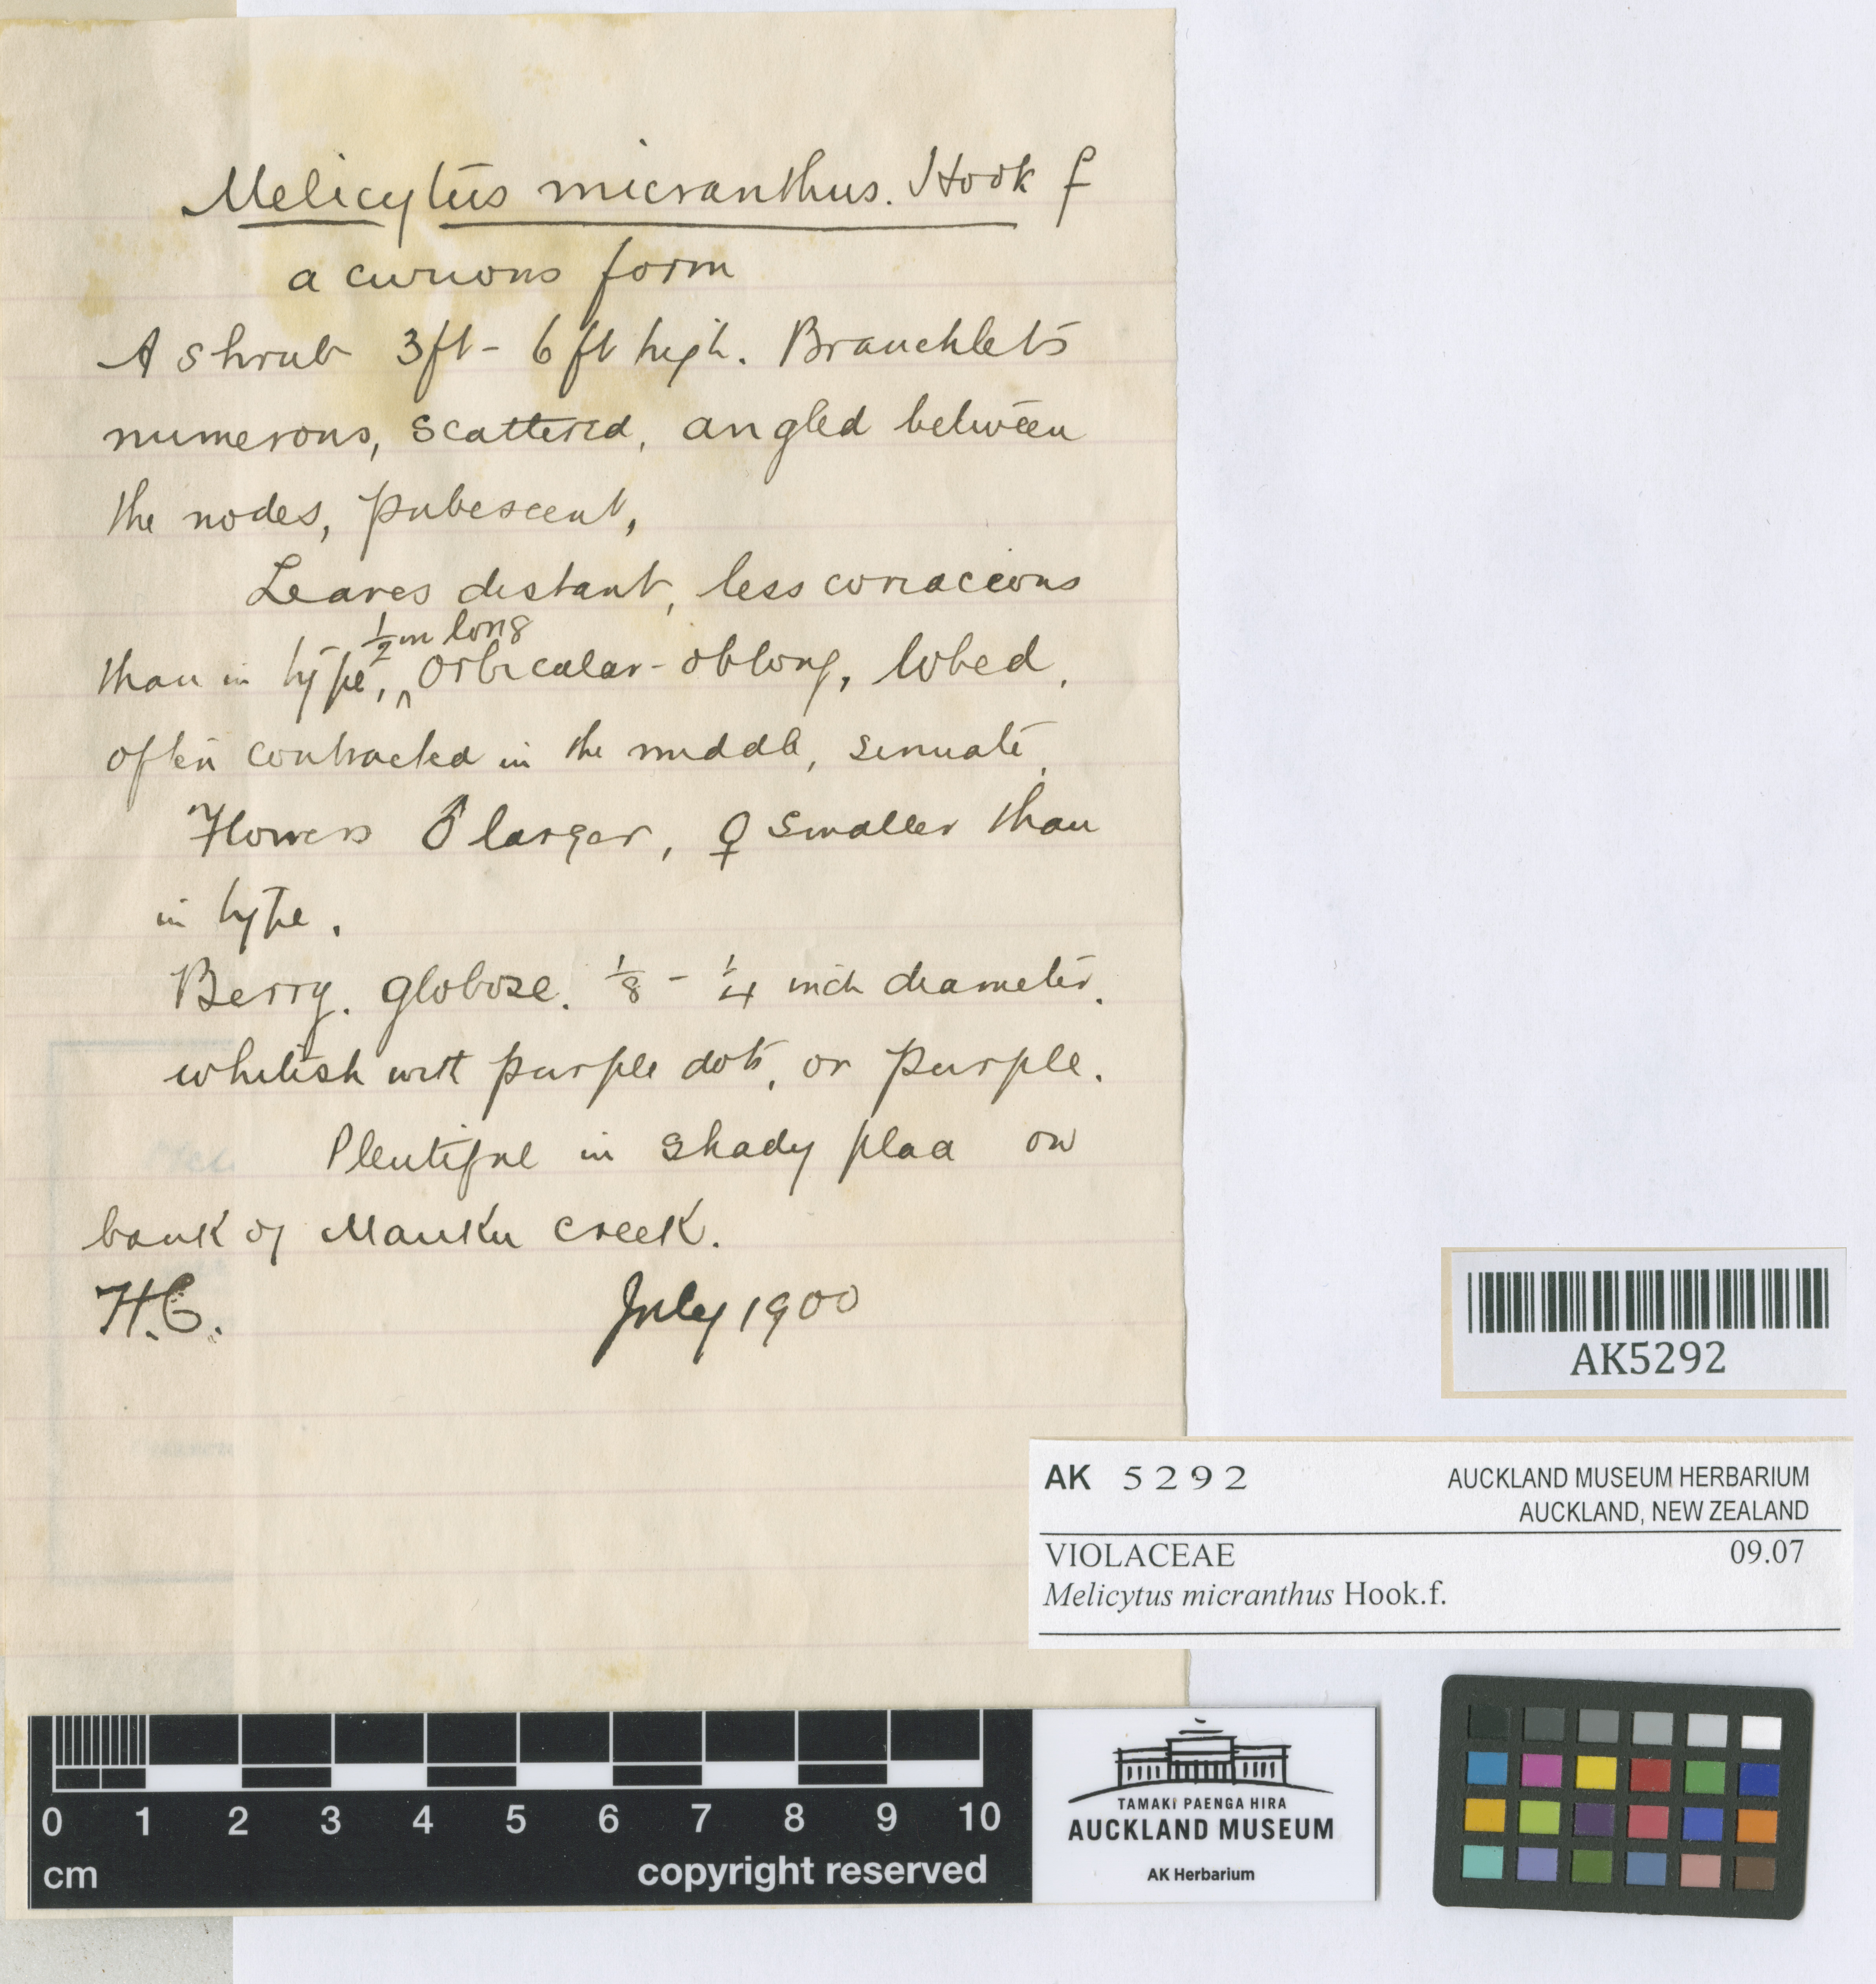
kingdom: Plantae
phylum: Tracheophyta
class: Magnoliopsida
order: Malpighiales
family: Violaceae
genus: Melicytus
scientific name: Melicytus micranthus
